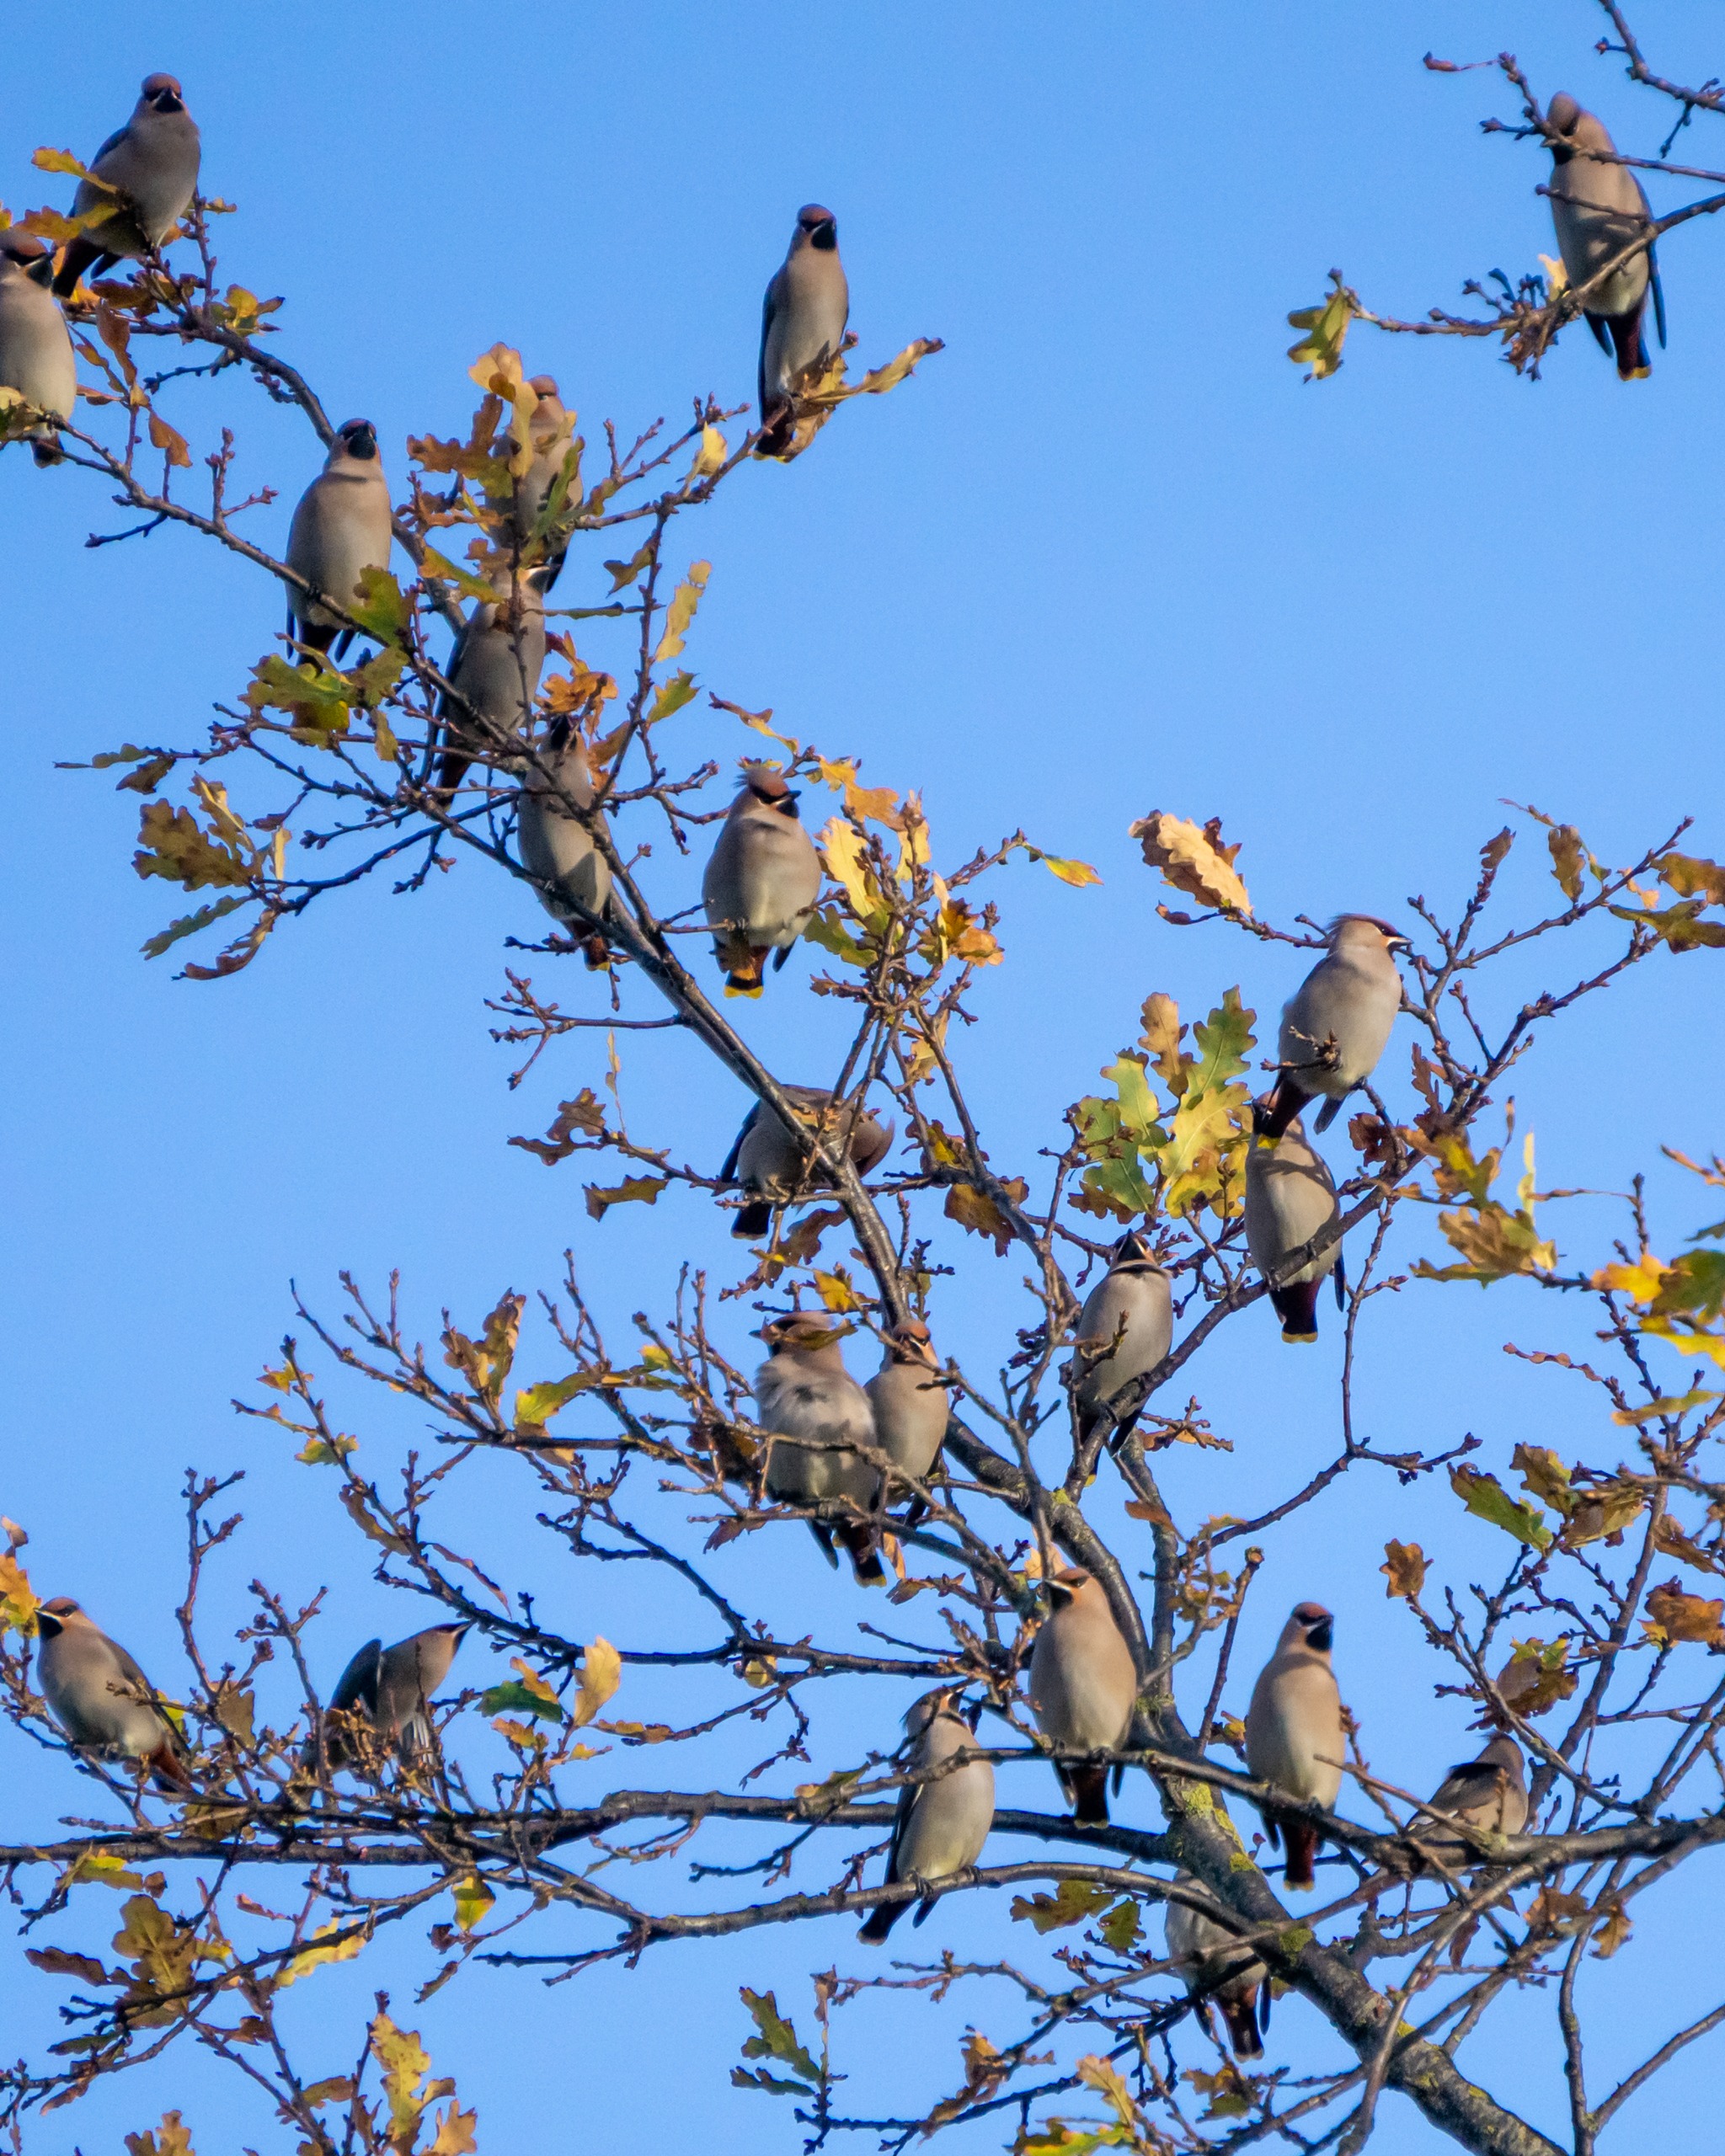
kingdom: Animalia
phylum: Chordata
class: Aves
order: Passeriformes
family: Bombycillidae
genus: Bombycilla
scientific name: Bombycilla garrulus
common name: Silkehale
